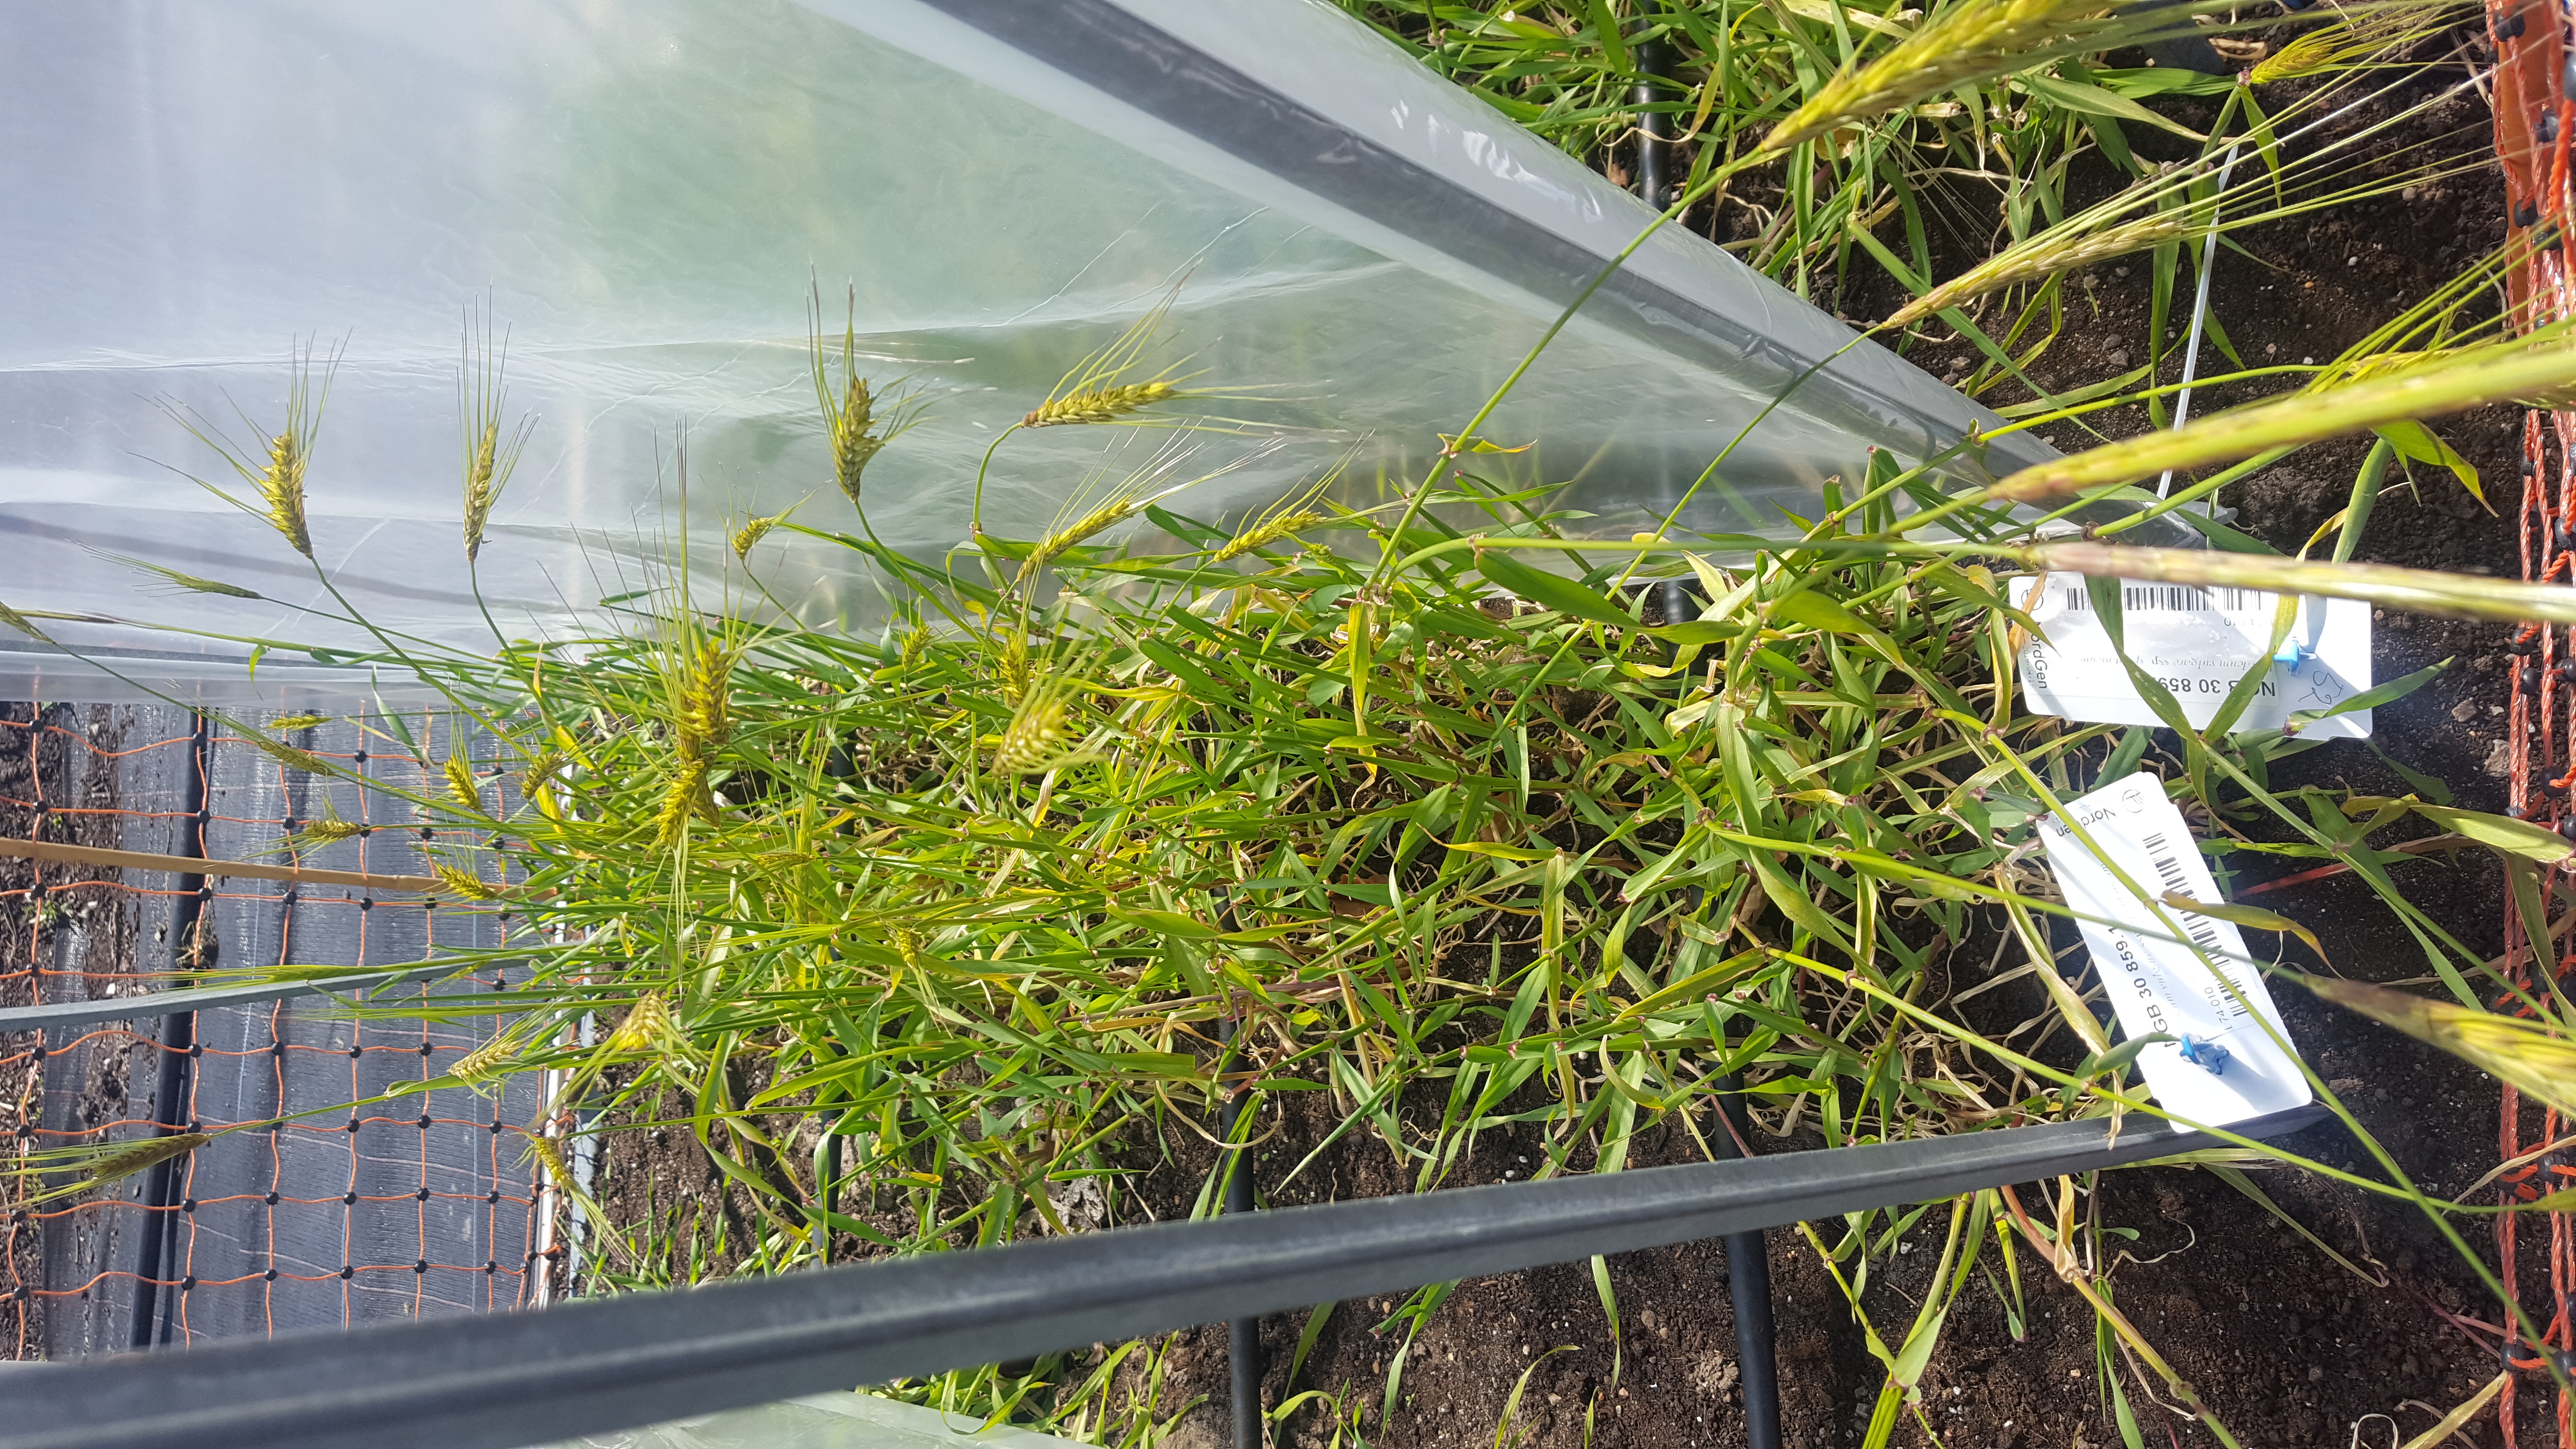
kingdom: Plantae
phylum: Tracheophyta
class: Liliopsida
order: Poales
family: Poaceae
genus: Hordeum
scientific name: Hordeum spontaneum
